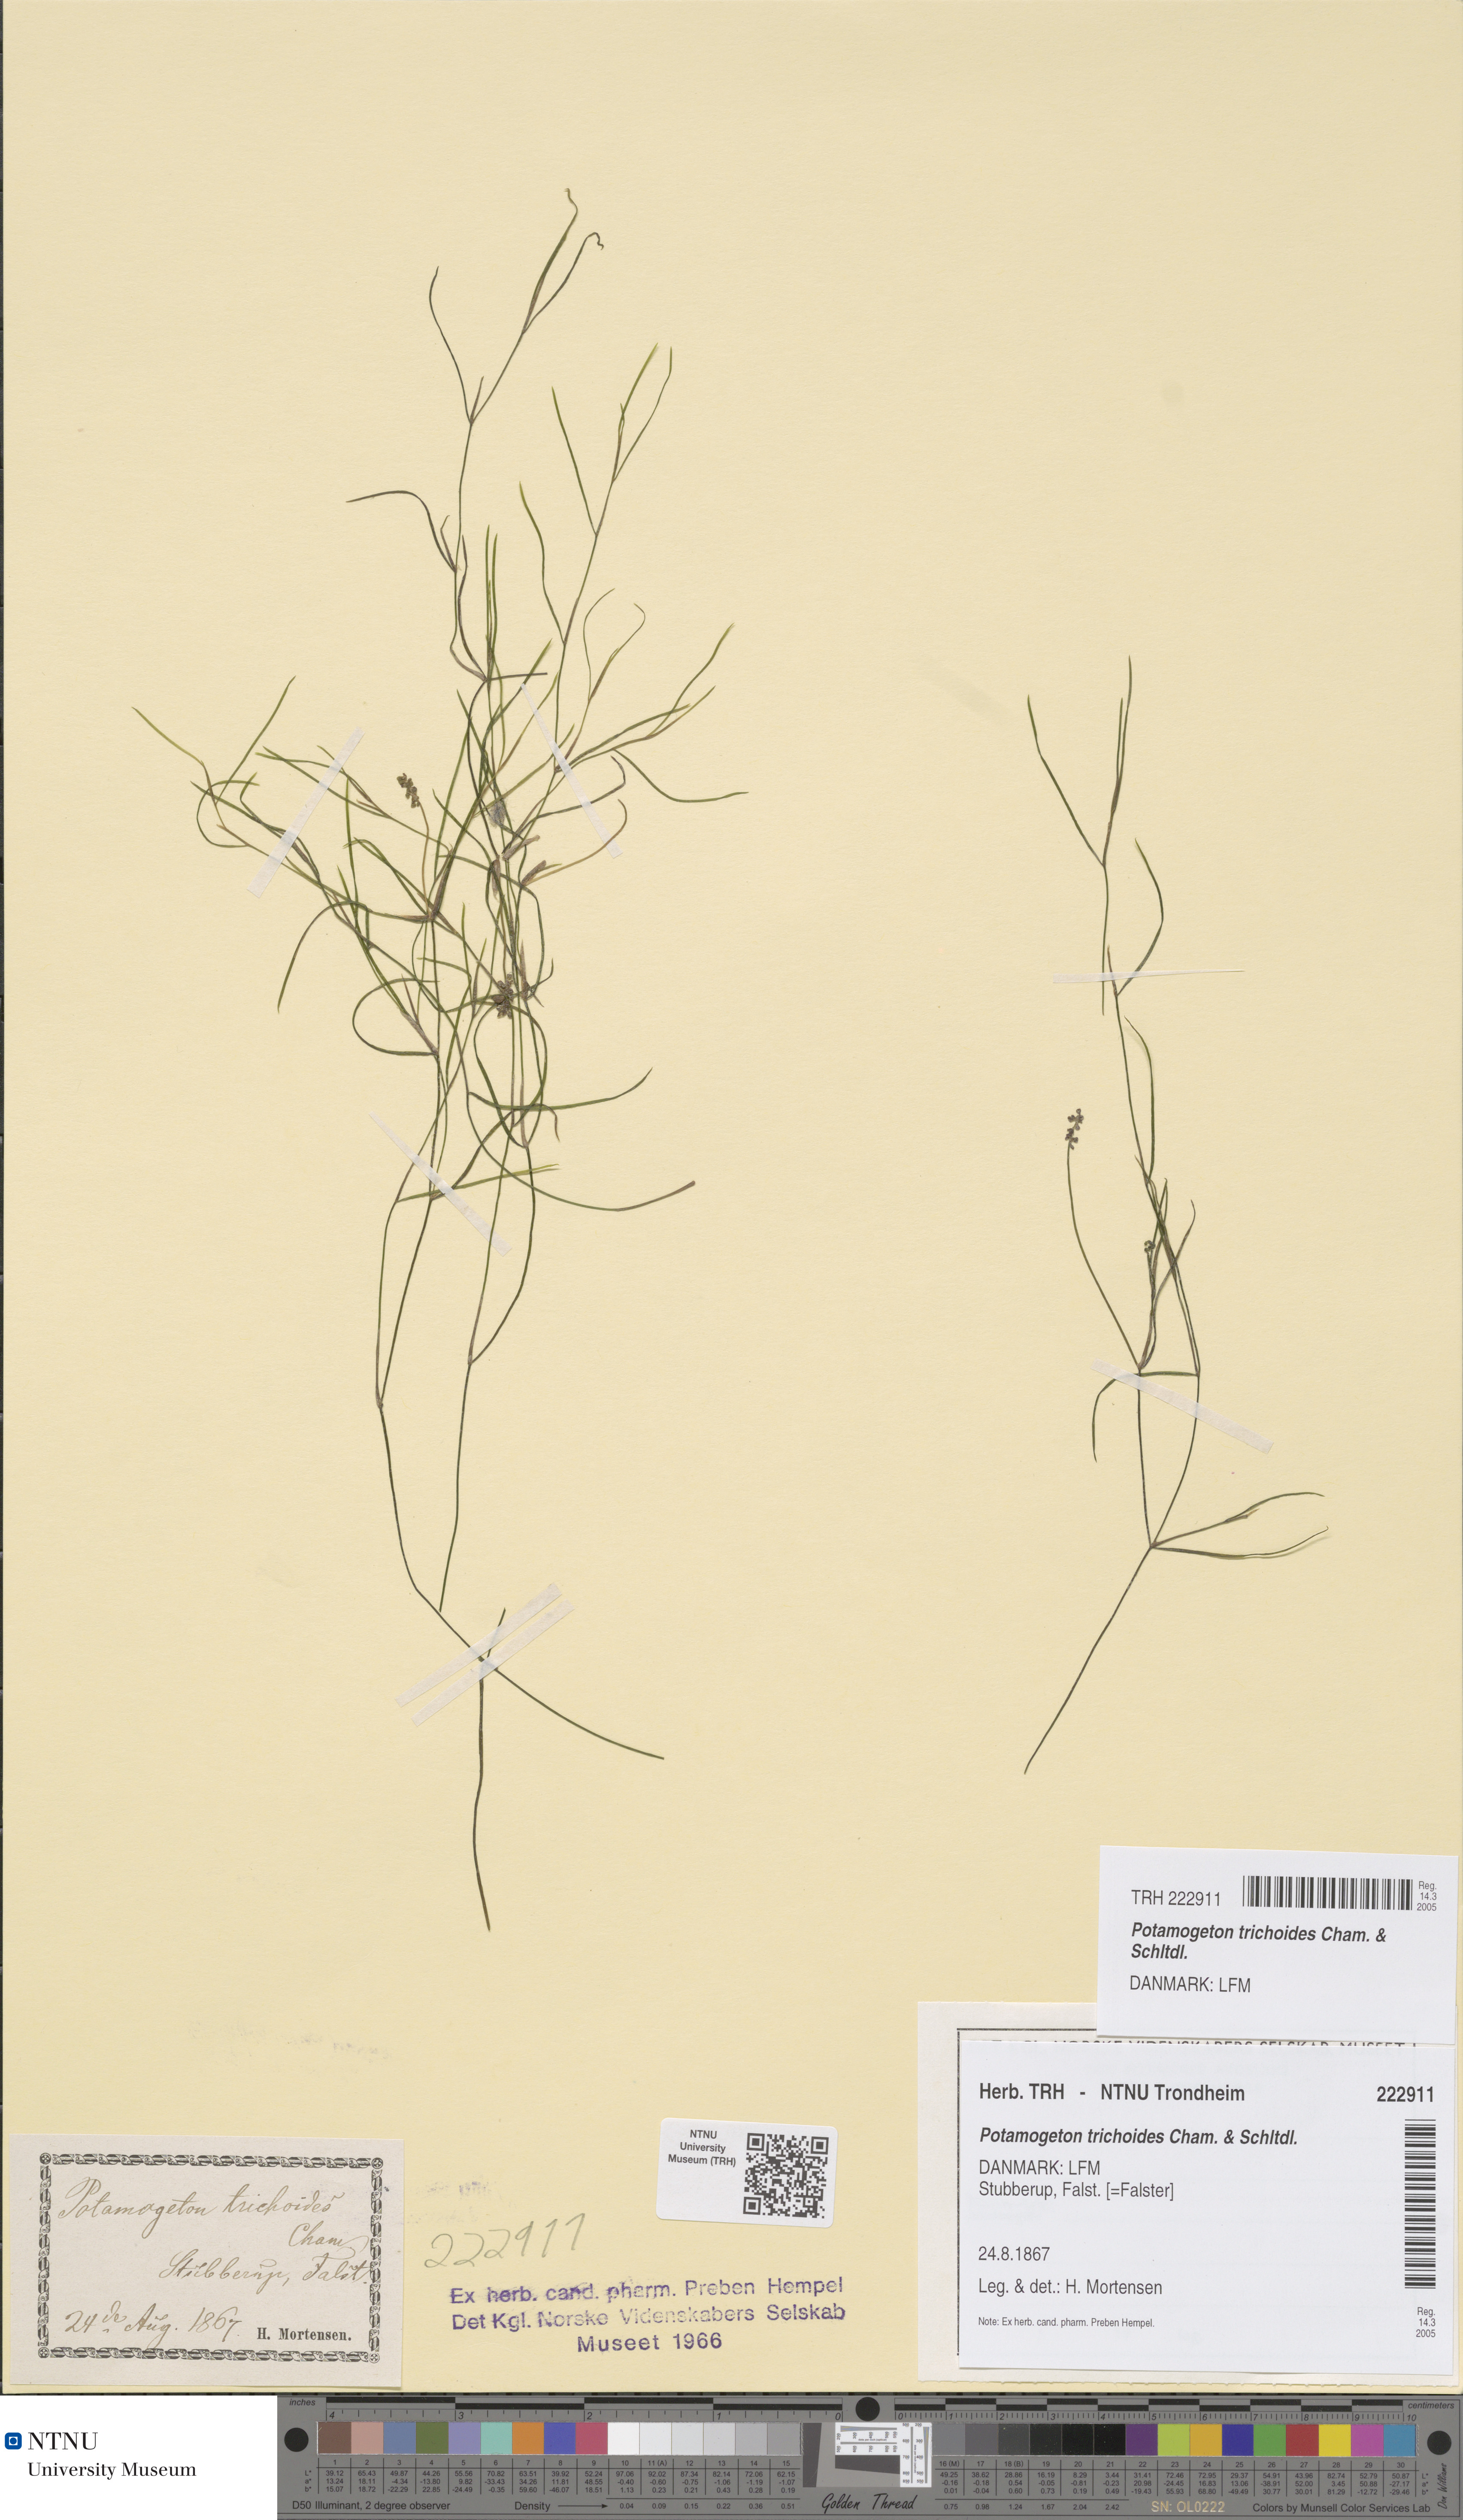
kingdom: Plantae
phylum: Tracheophyta
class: Liliopsida
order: Alismatales
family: Potamogetonaceae
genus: Potamogeton
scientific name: Potamogeton trichoides
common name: Hairlike pondweed
